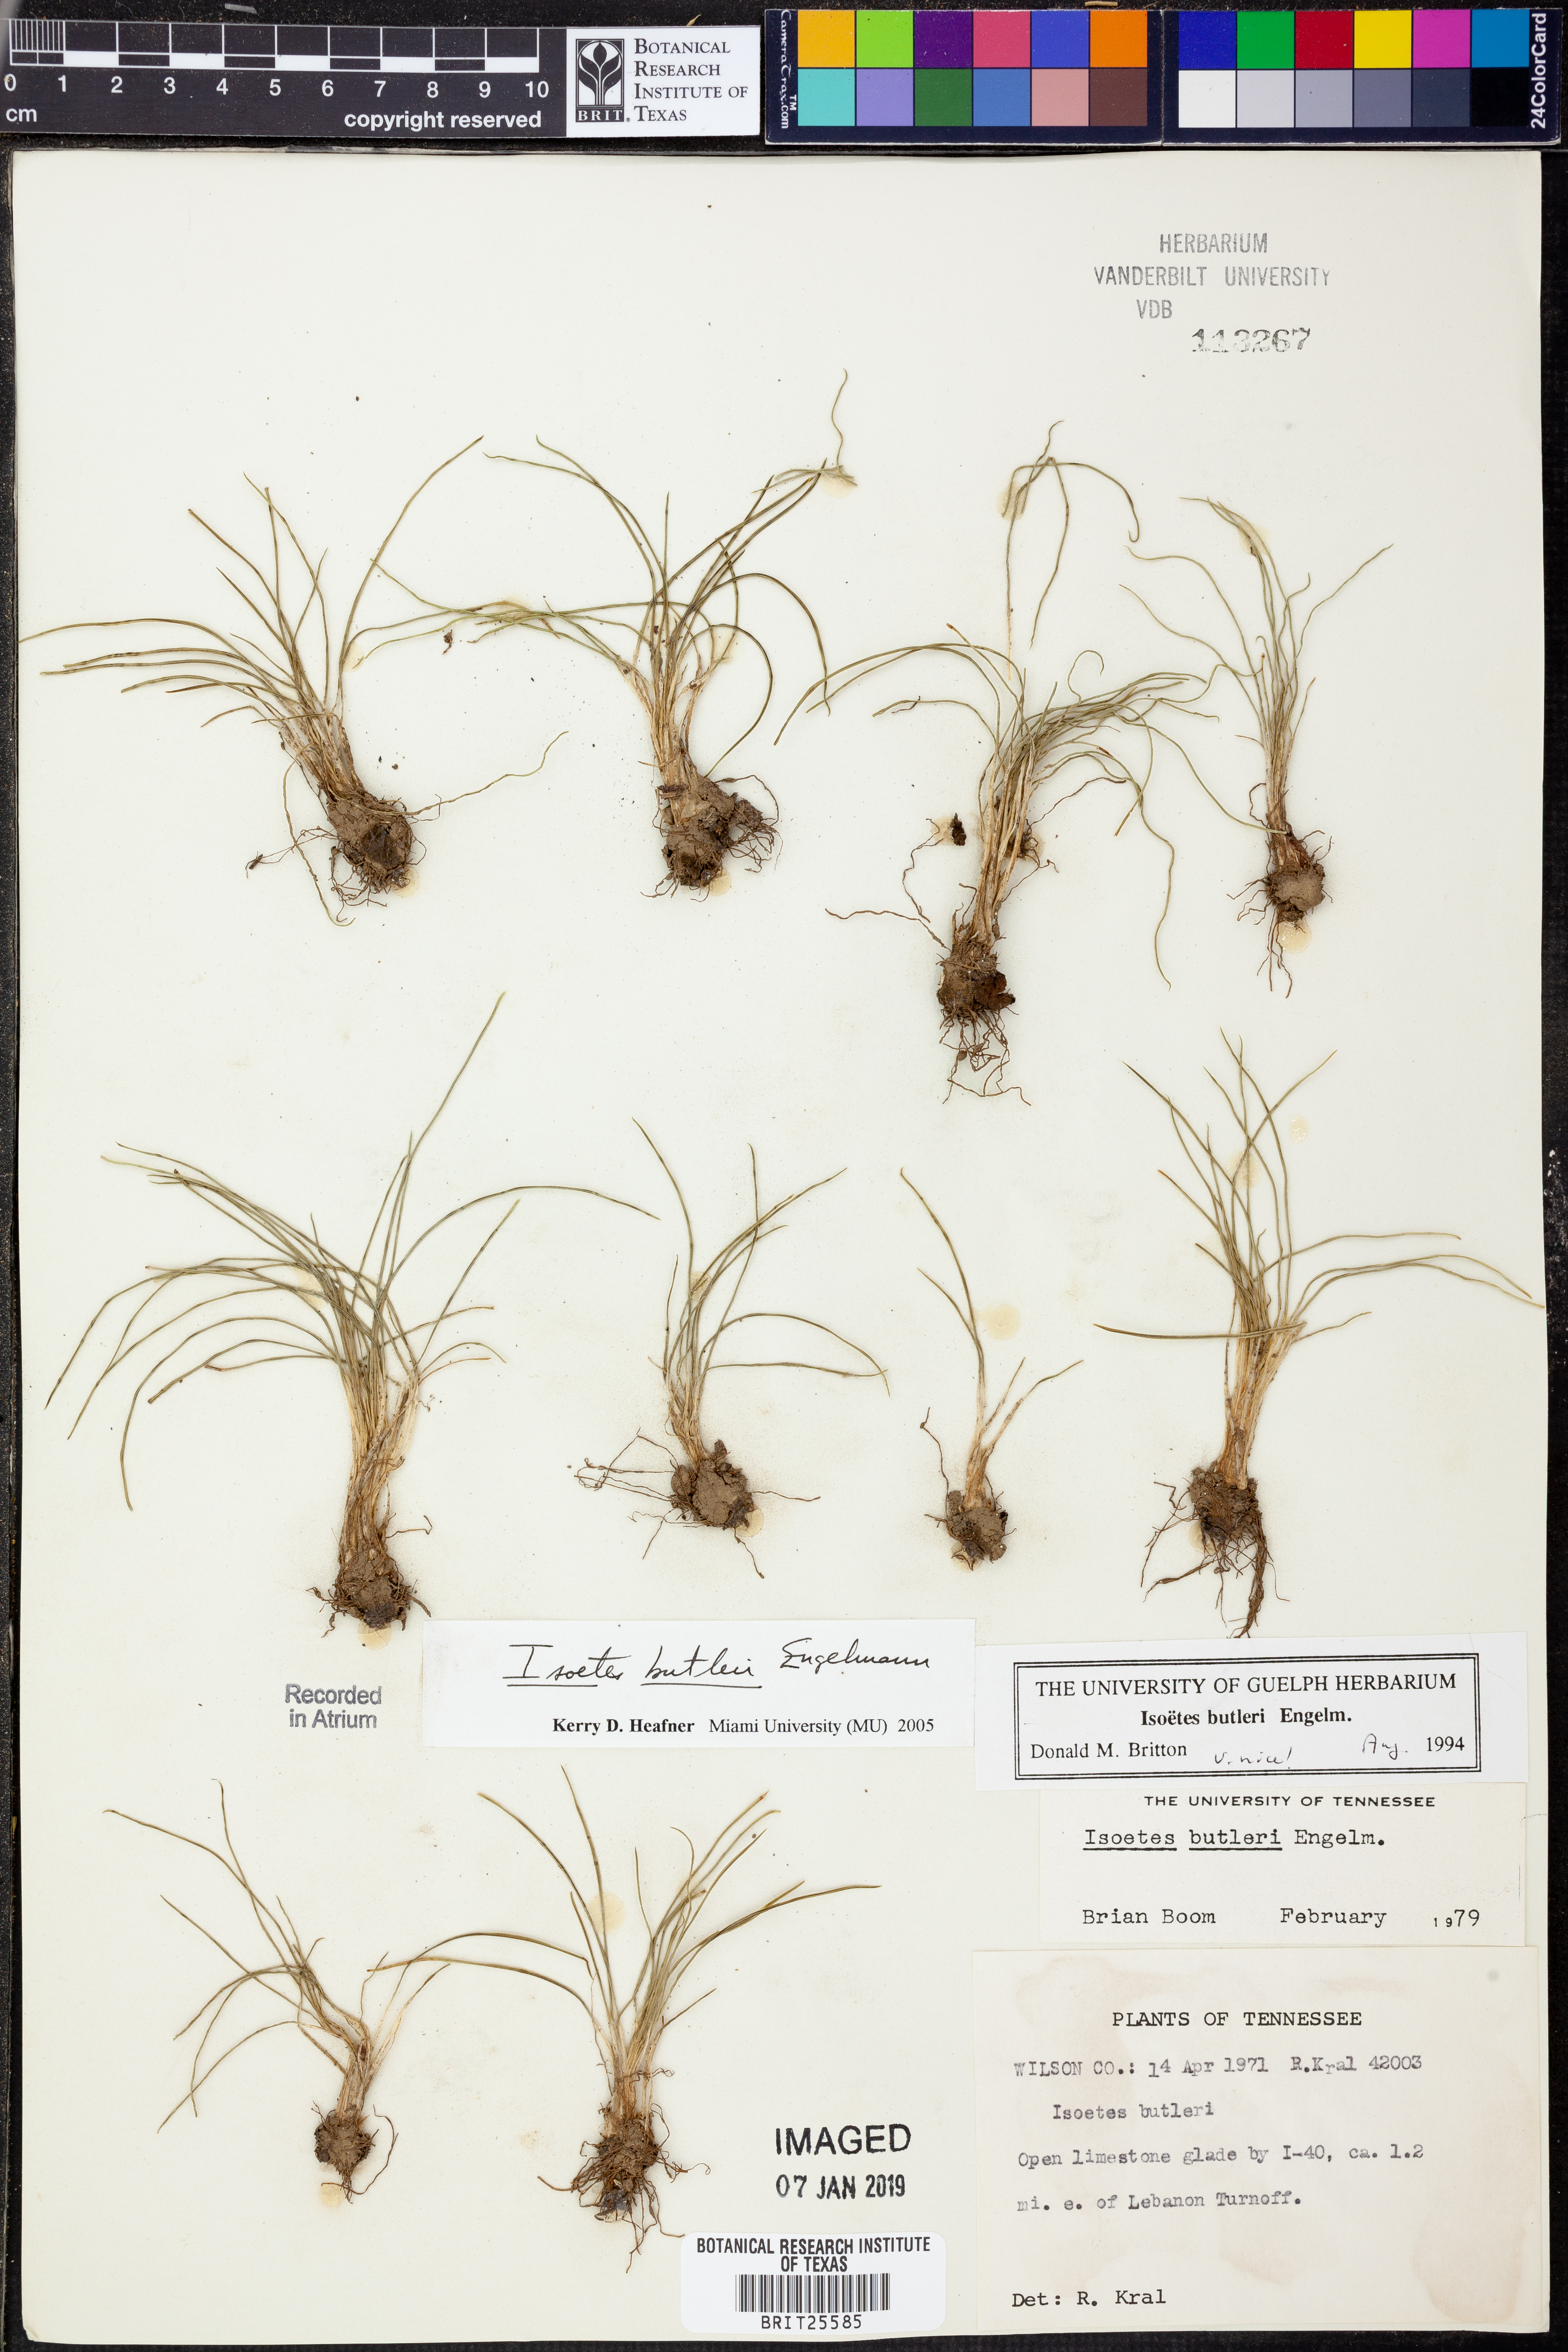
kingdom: Plantae
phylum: Tracheophyta
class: Lycopodiopsida
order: Isoetales
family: Isoetaceae
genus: Isoetes
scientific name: Isoetes butleri
